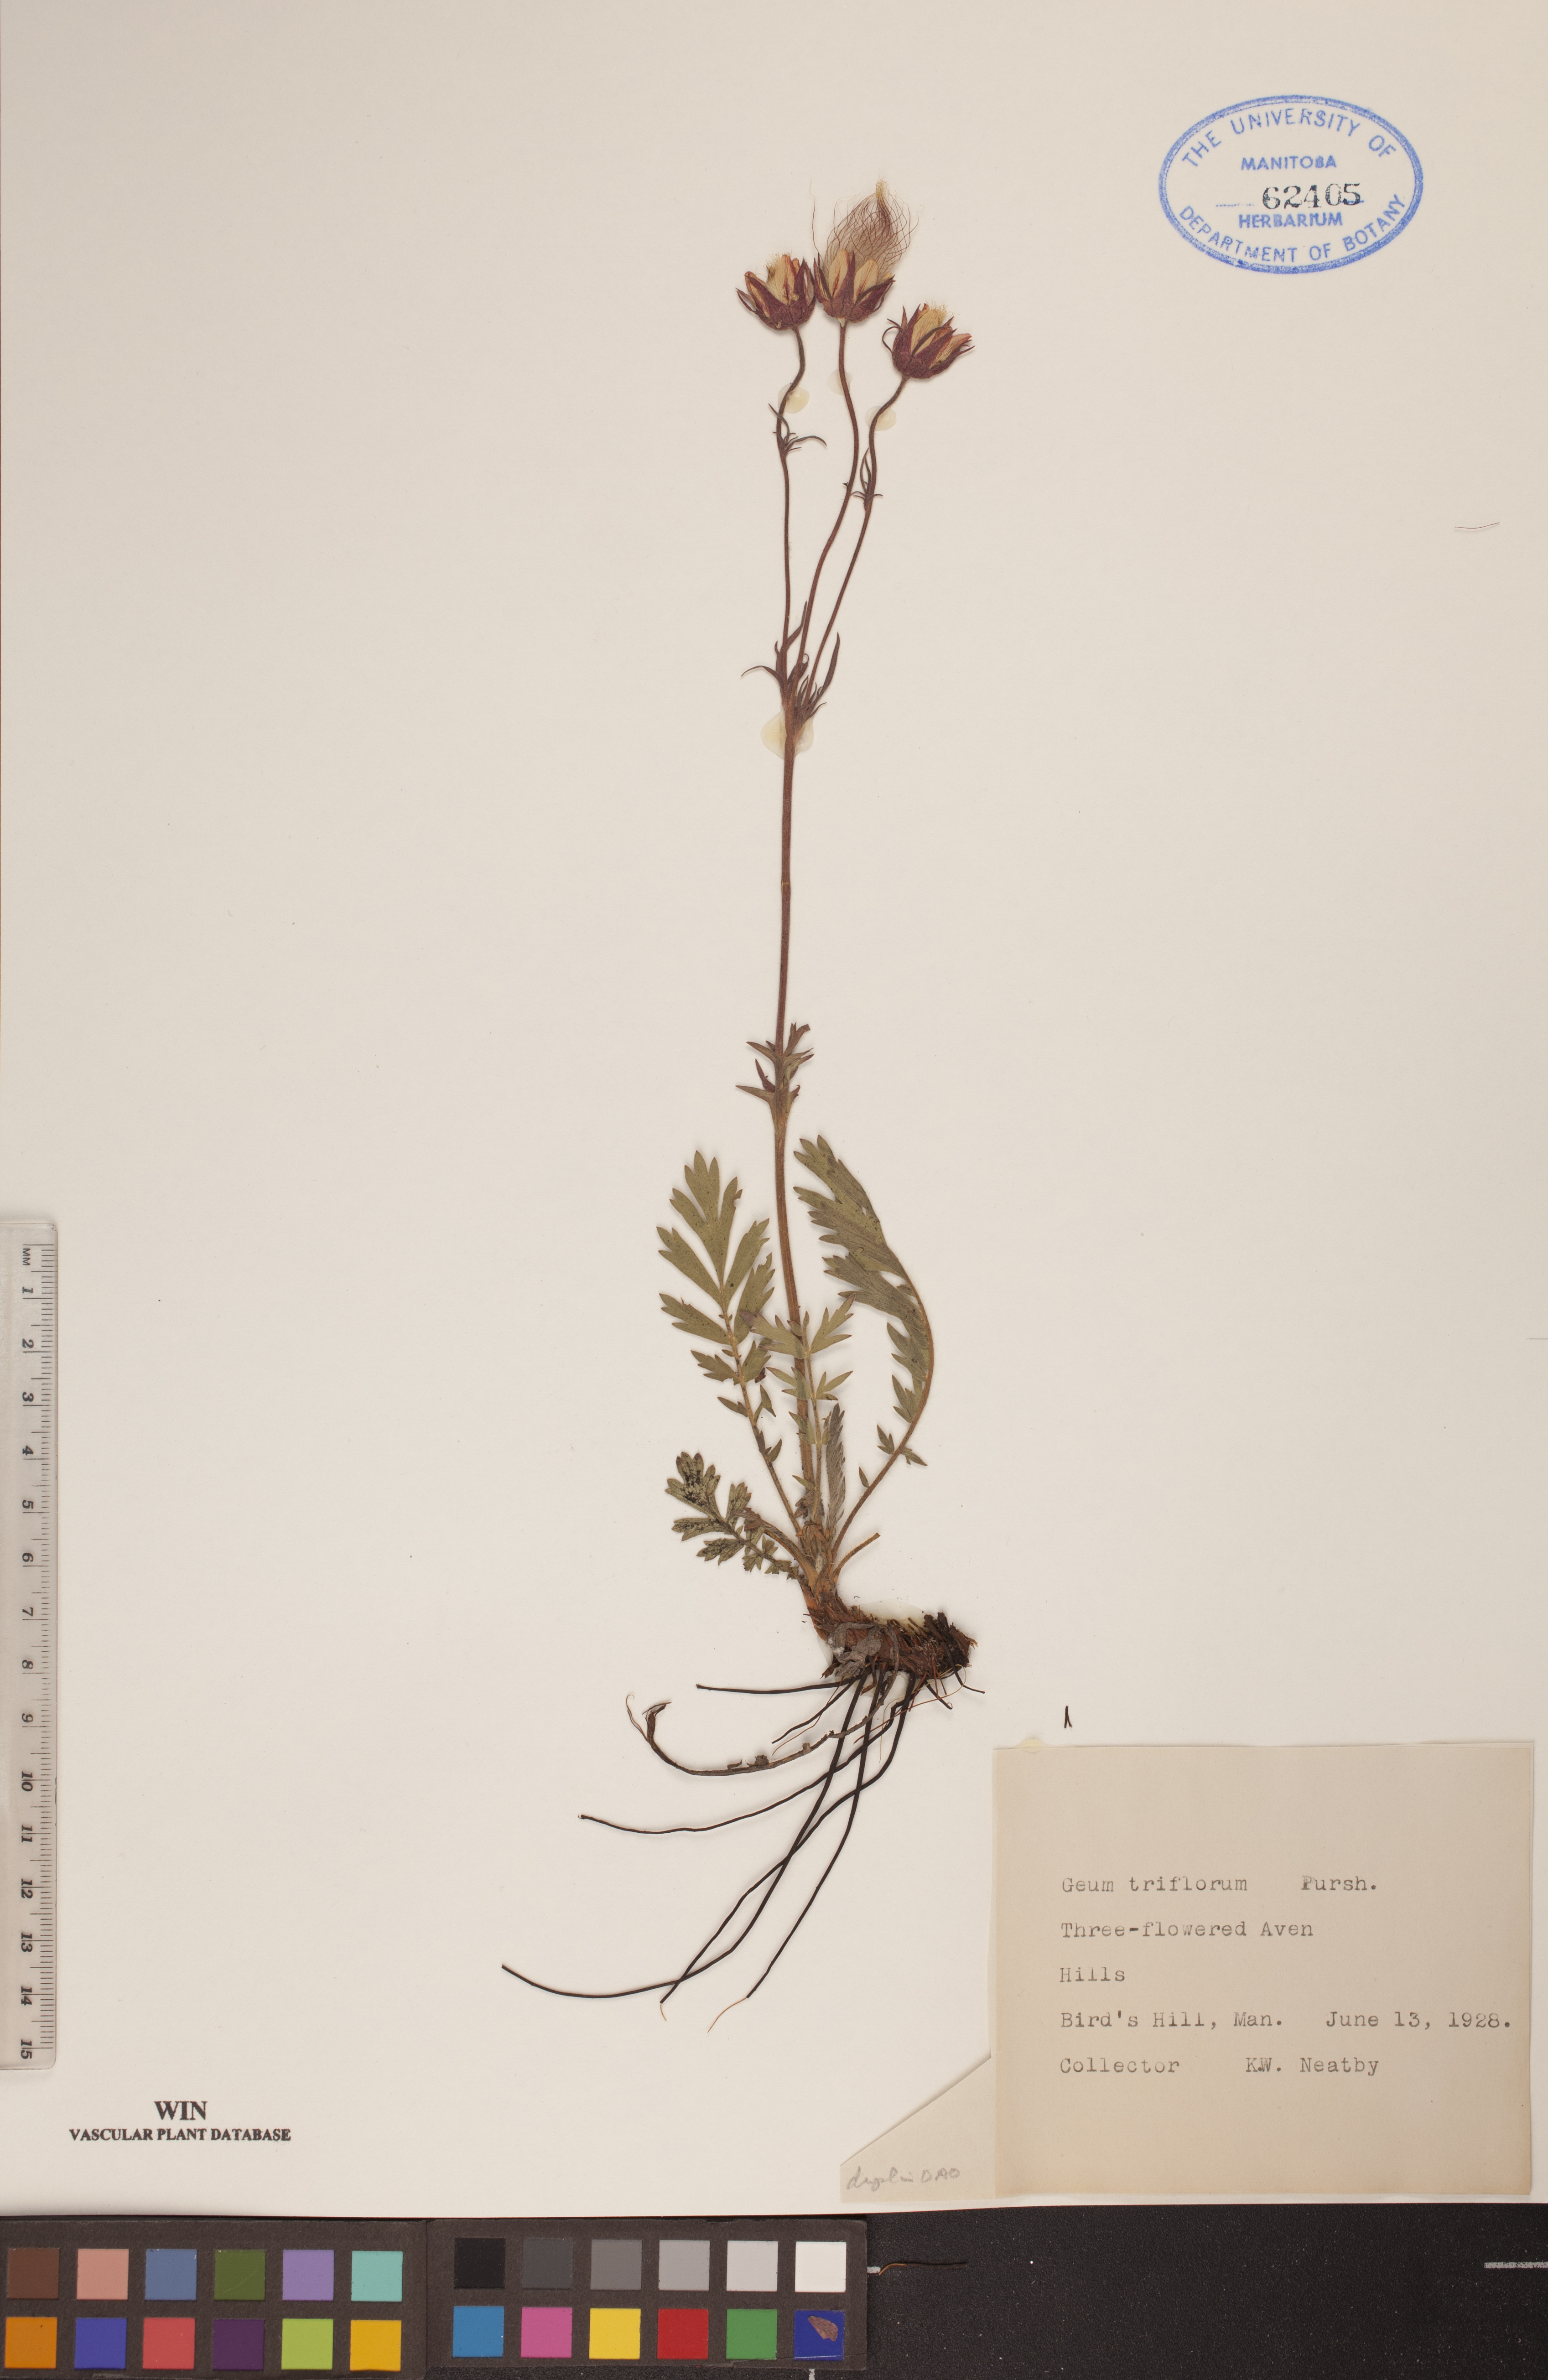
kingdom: Plantae
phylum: Tracheophyta
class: Magnoliopsida
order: Rosales
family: Rosaceae
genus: Geum
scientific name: Geum triflorum
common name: Old man's whiskers
